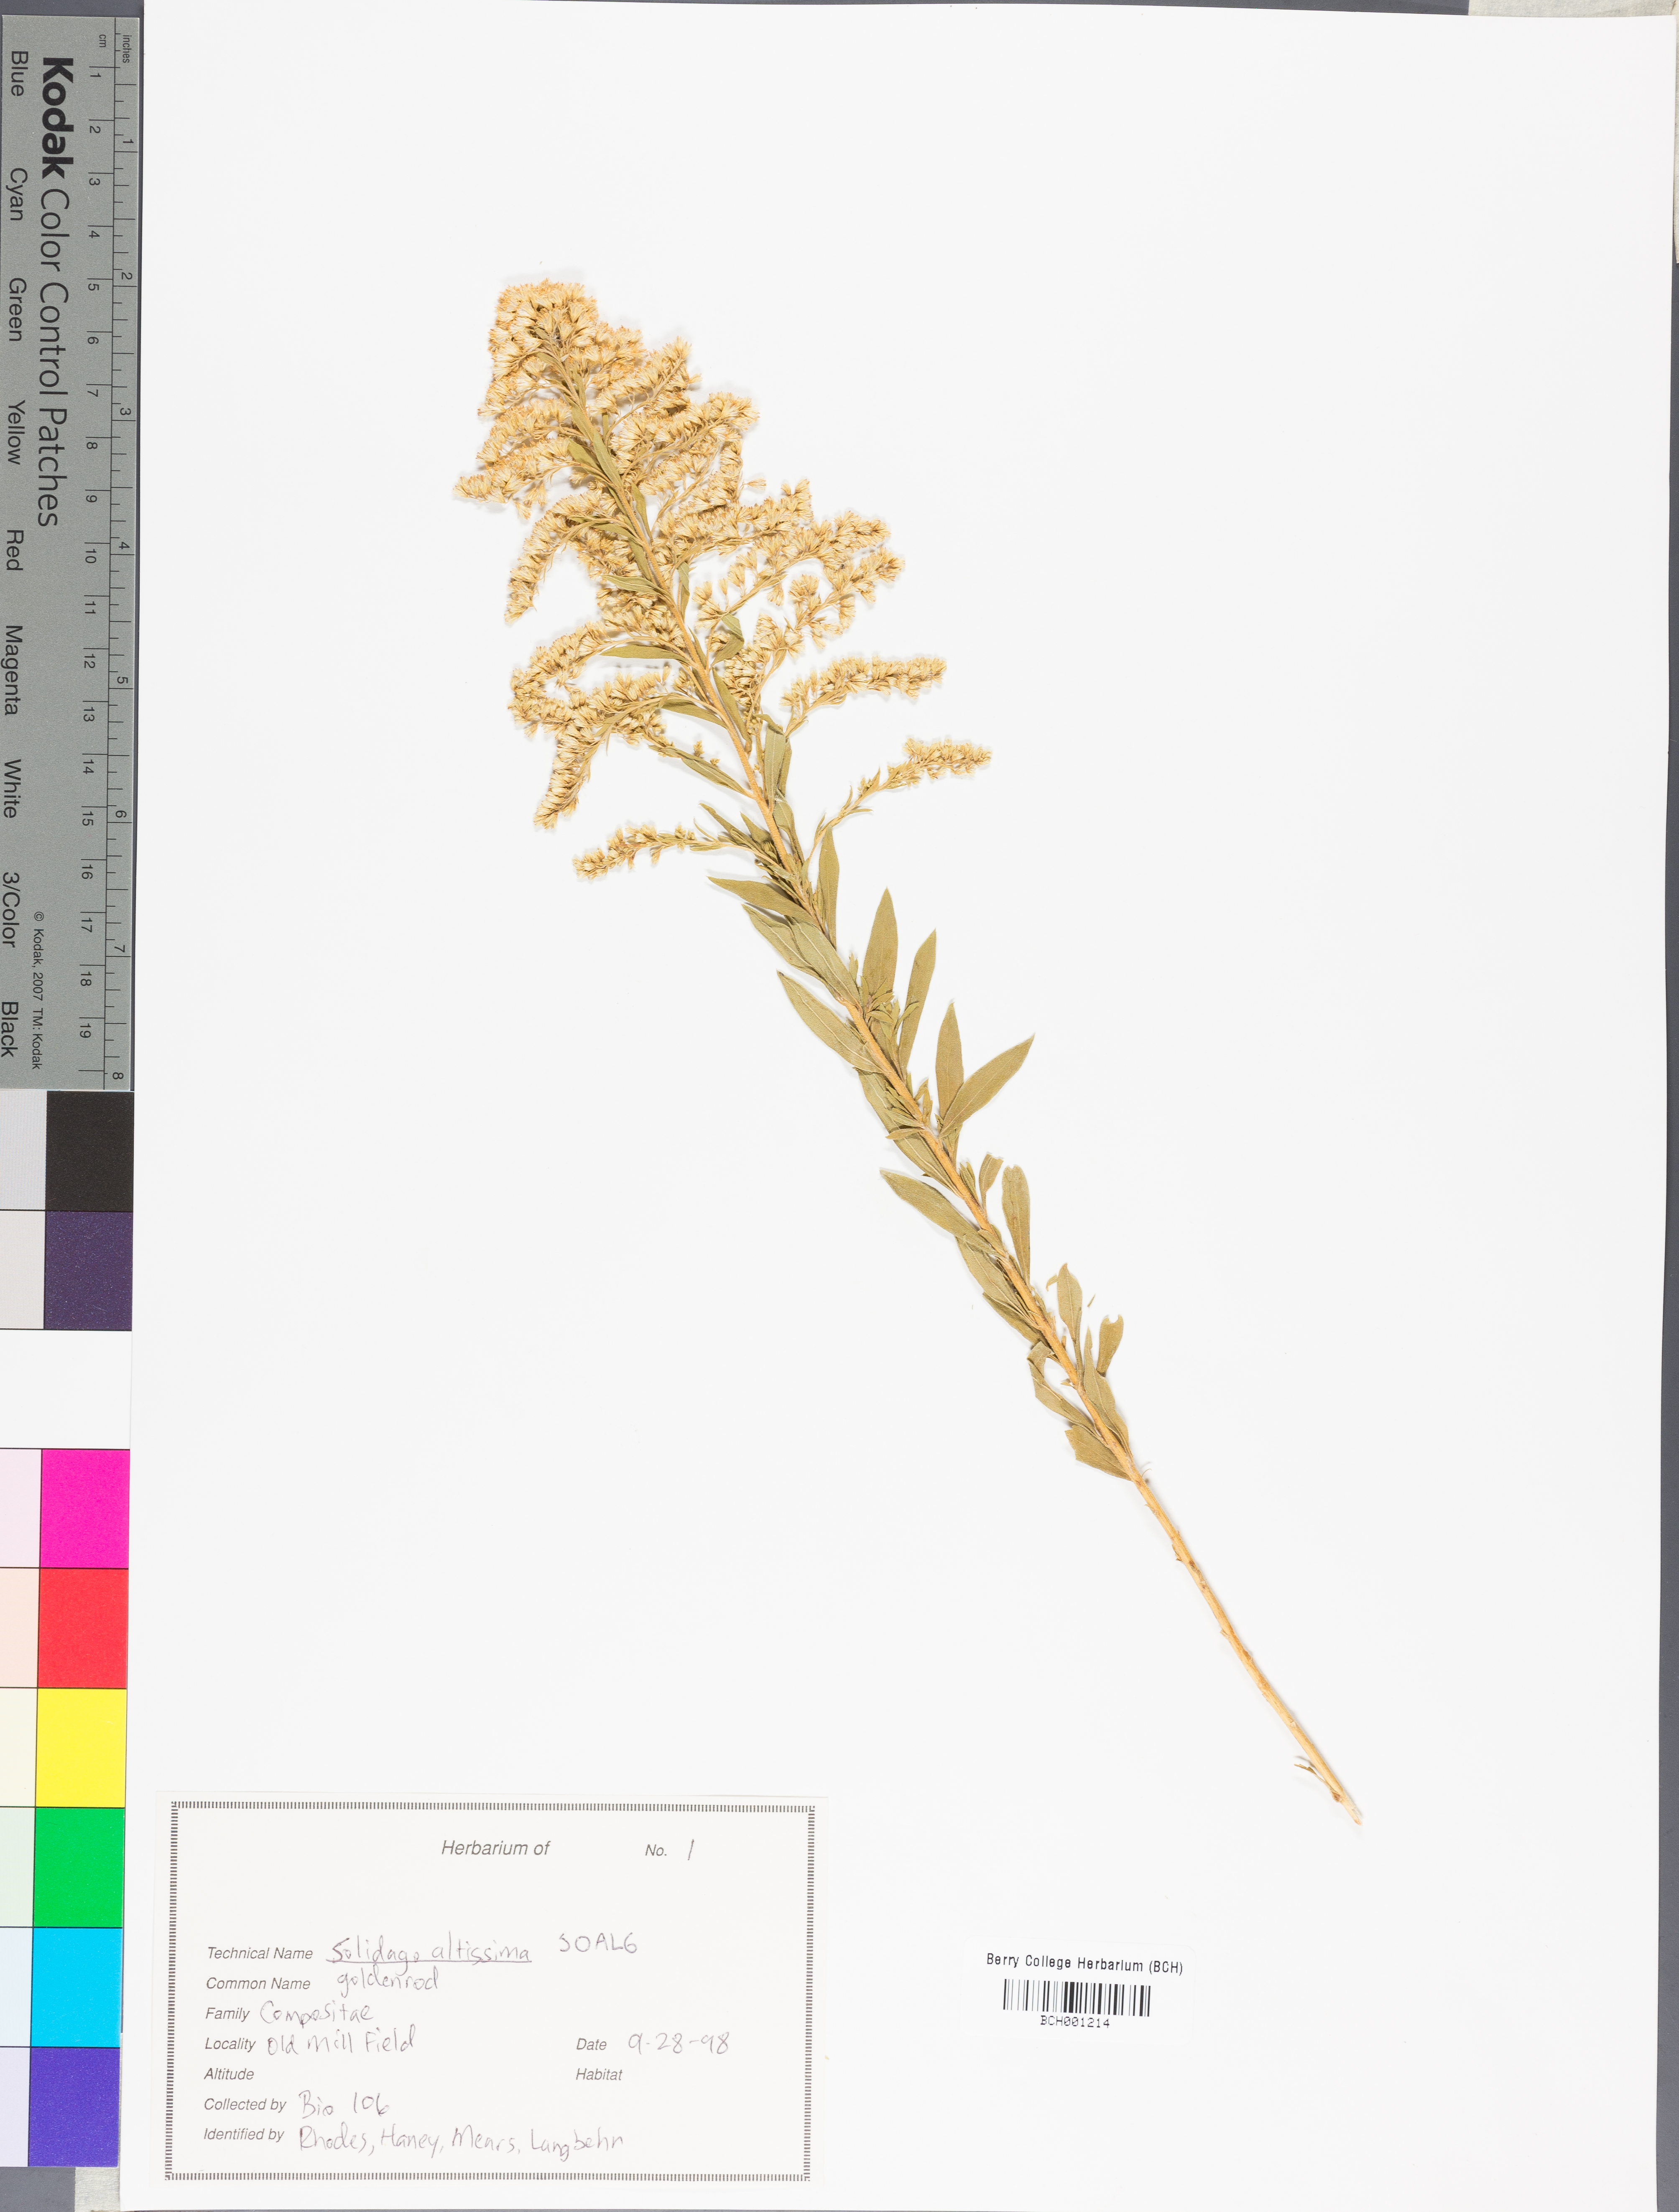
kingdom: Plantae
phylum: Tracheophyta
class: Magnoliopsida
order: Asterales
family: Asteraceae
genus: Solidago
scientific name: Solidago altissima
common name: Late goldenrod
